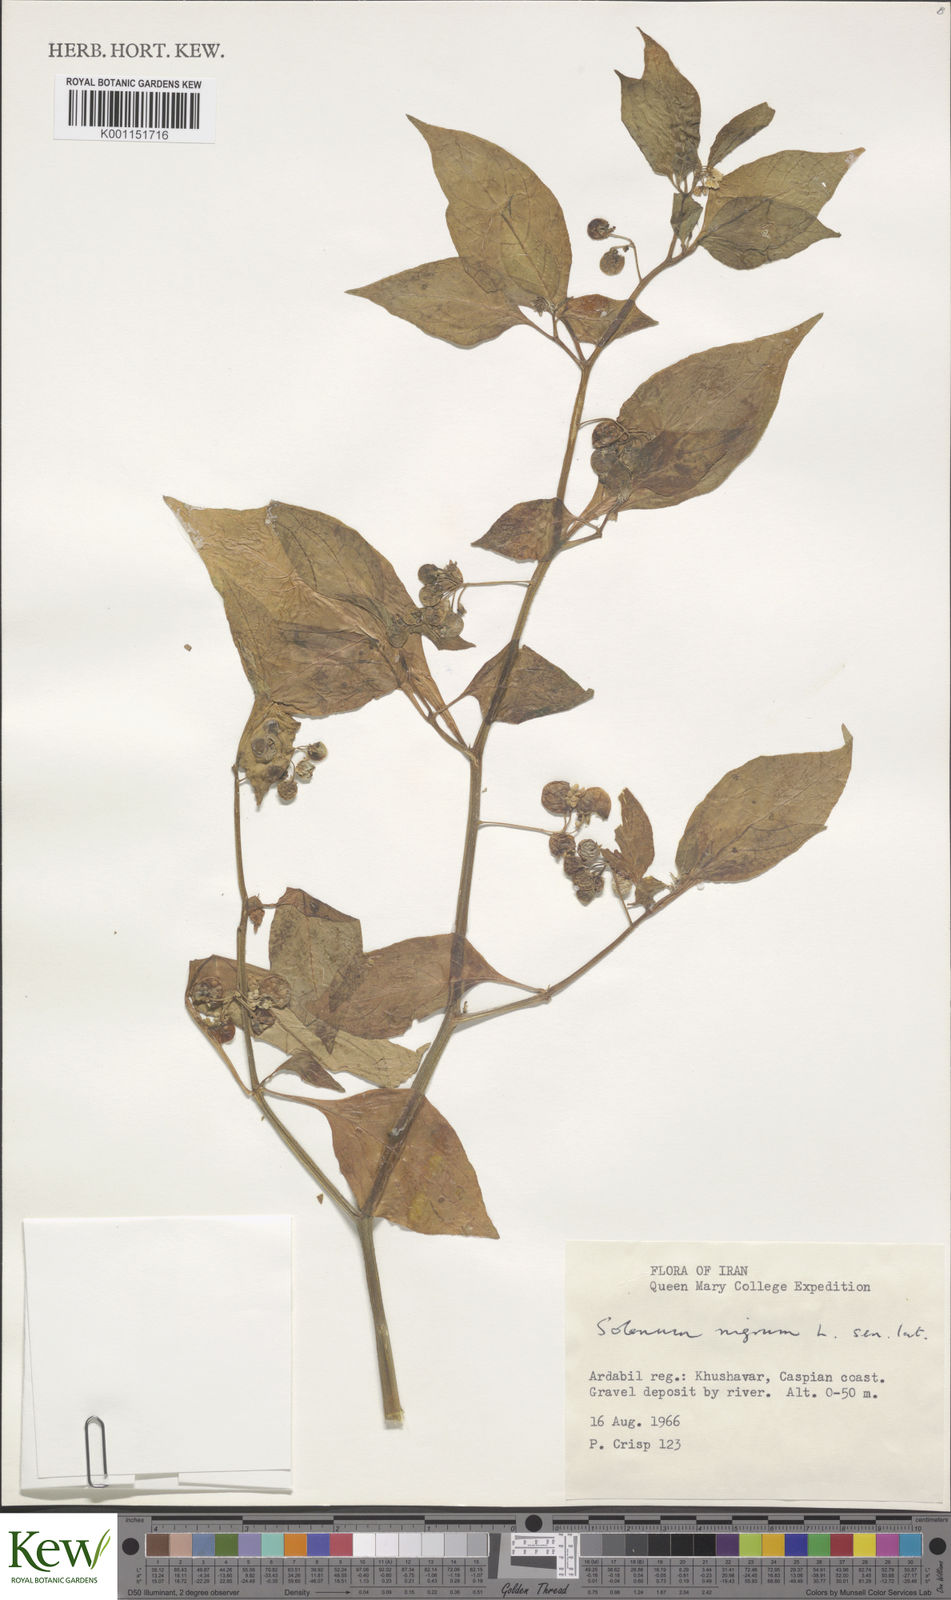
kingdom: Plantae
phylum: Tracheophyta
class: Magnoliopsida
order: Solanales
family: Solanaceae
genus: Solanum
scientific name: Solanum
